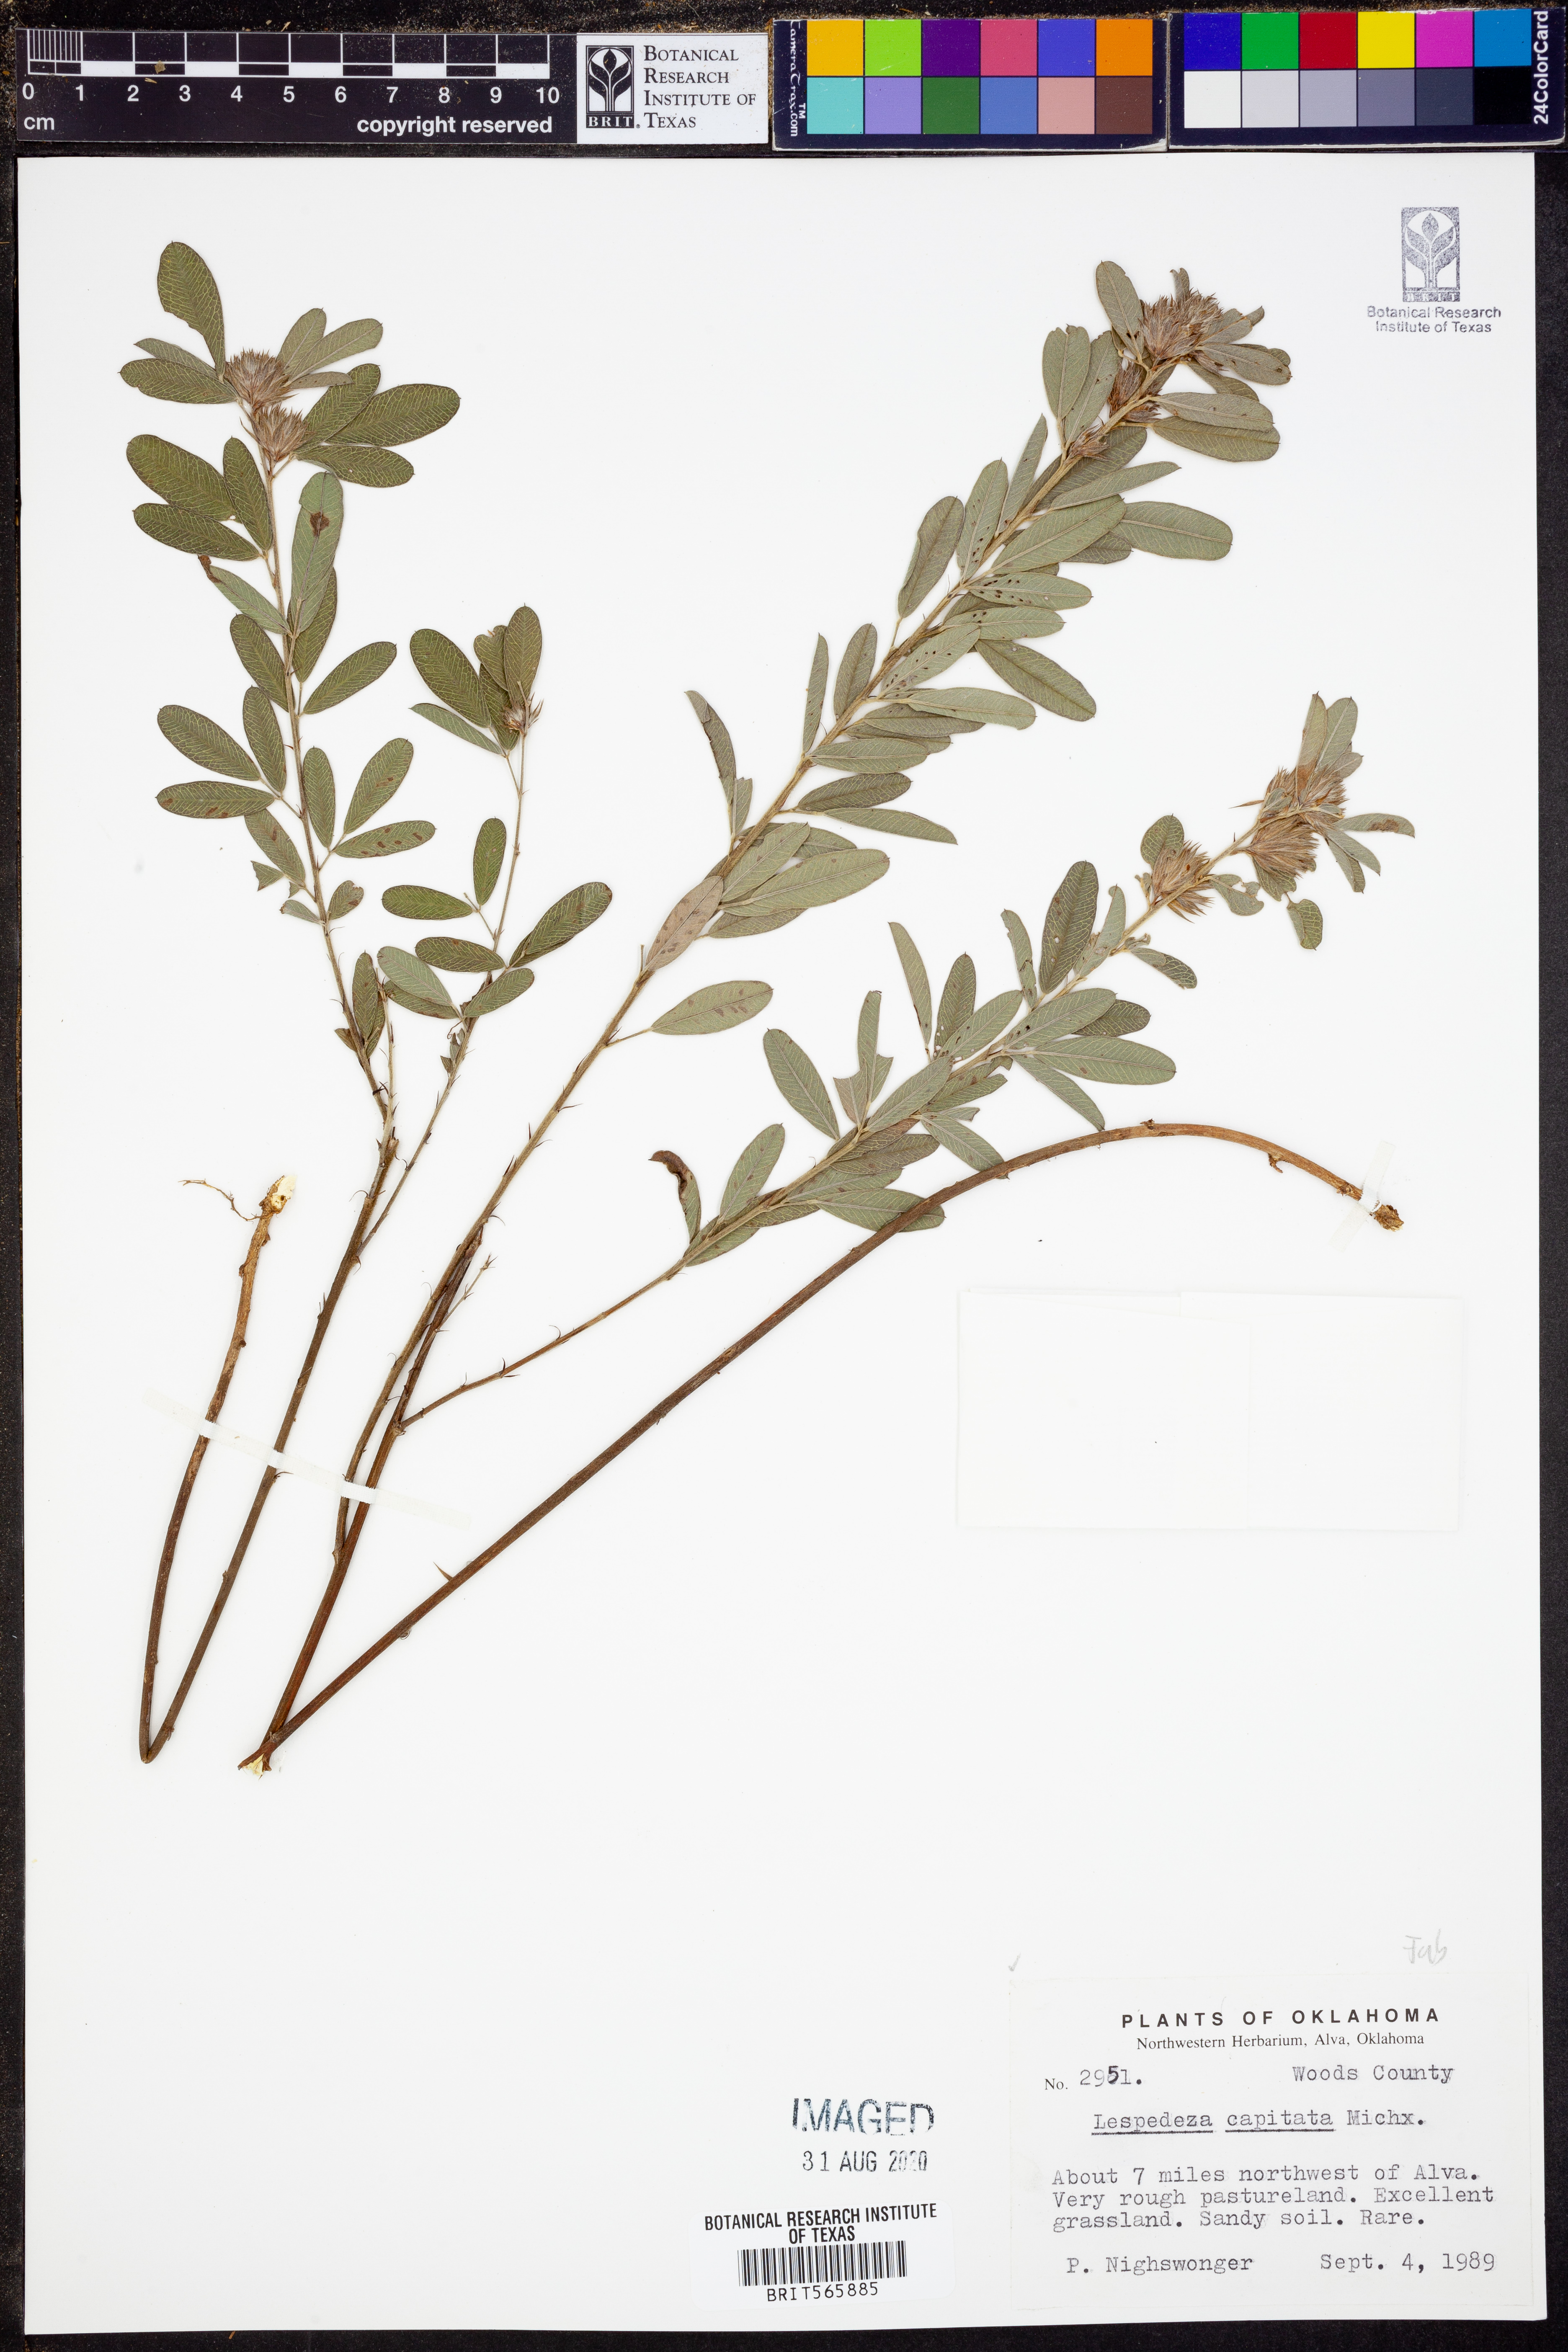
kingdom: Plantae
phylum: Tracheophyta
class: Magnoliopsida
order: Fabales
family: Fabaceae
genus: Lespedeza
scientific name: Lespedeza capitata
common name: Dusty clover
